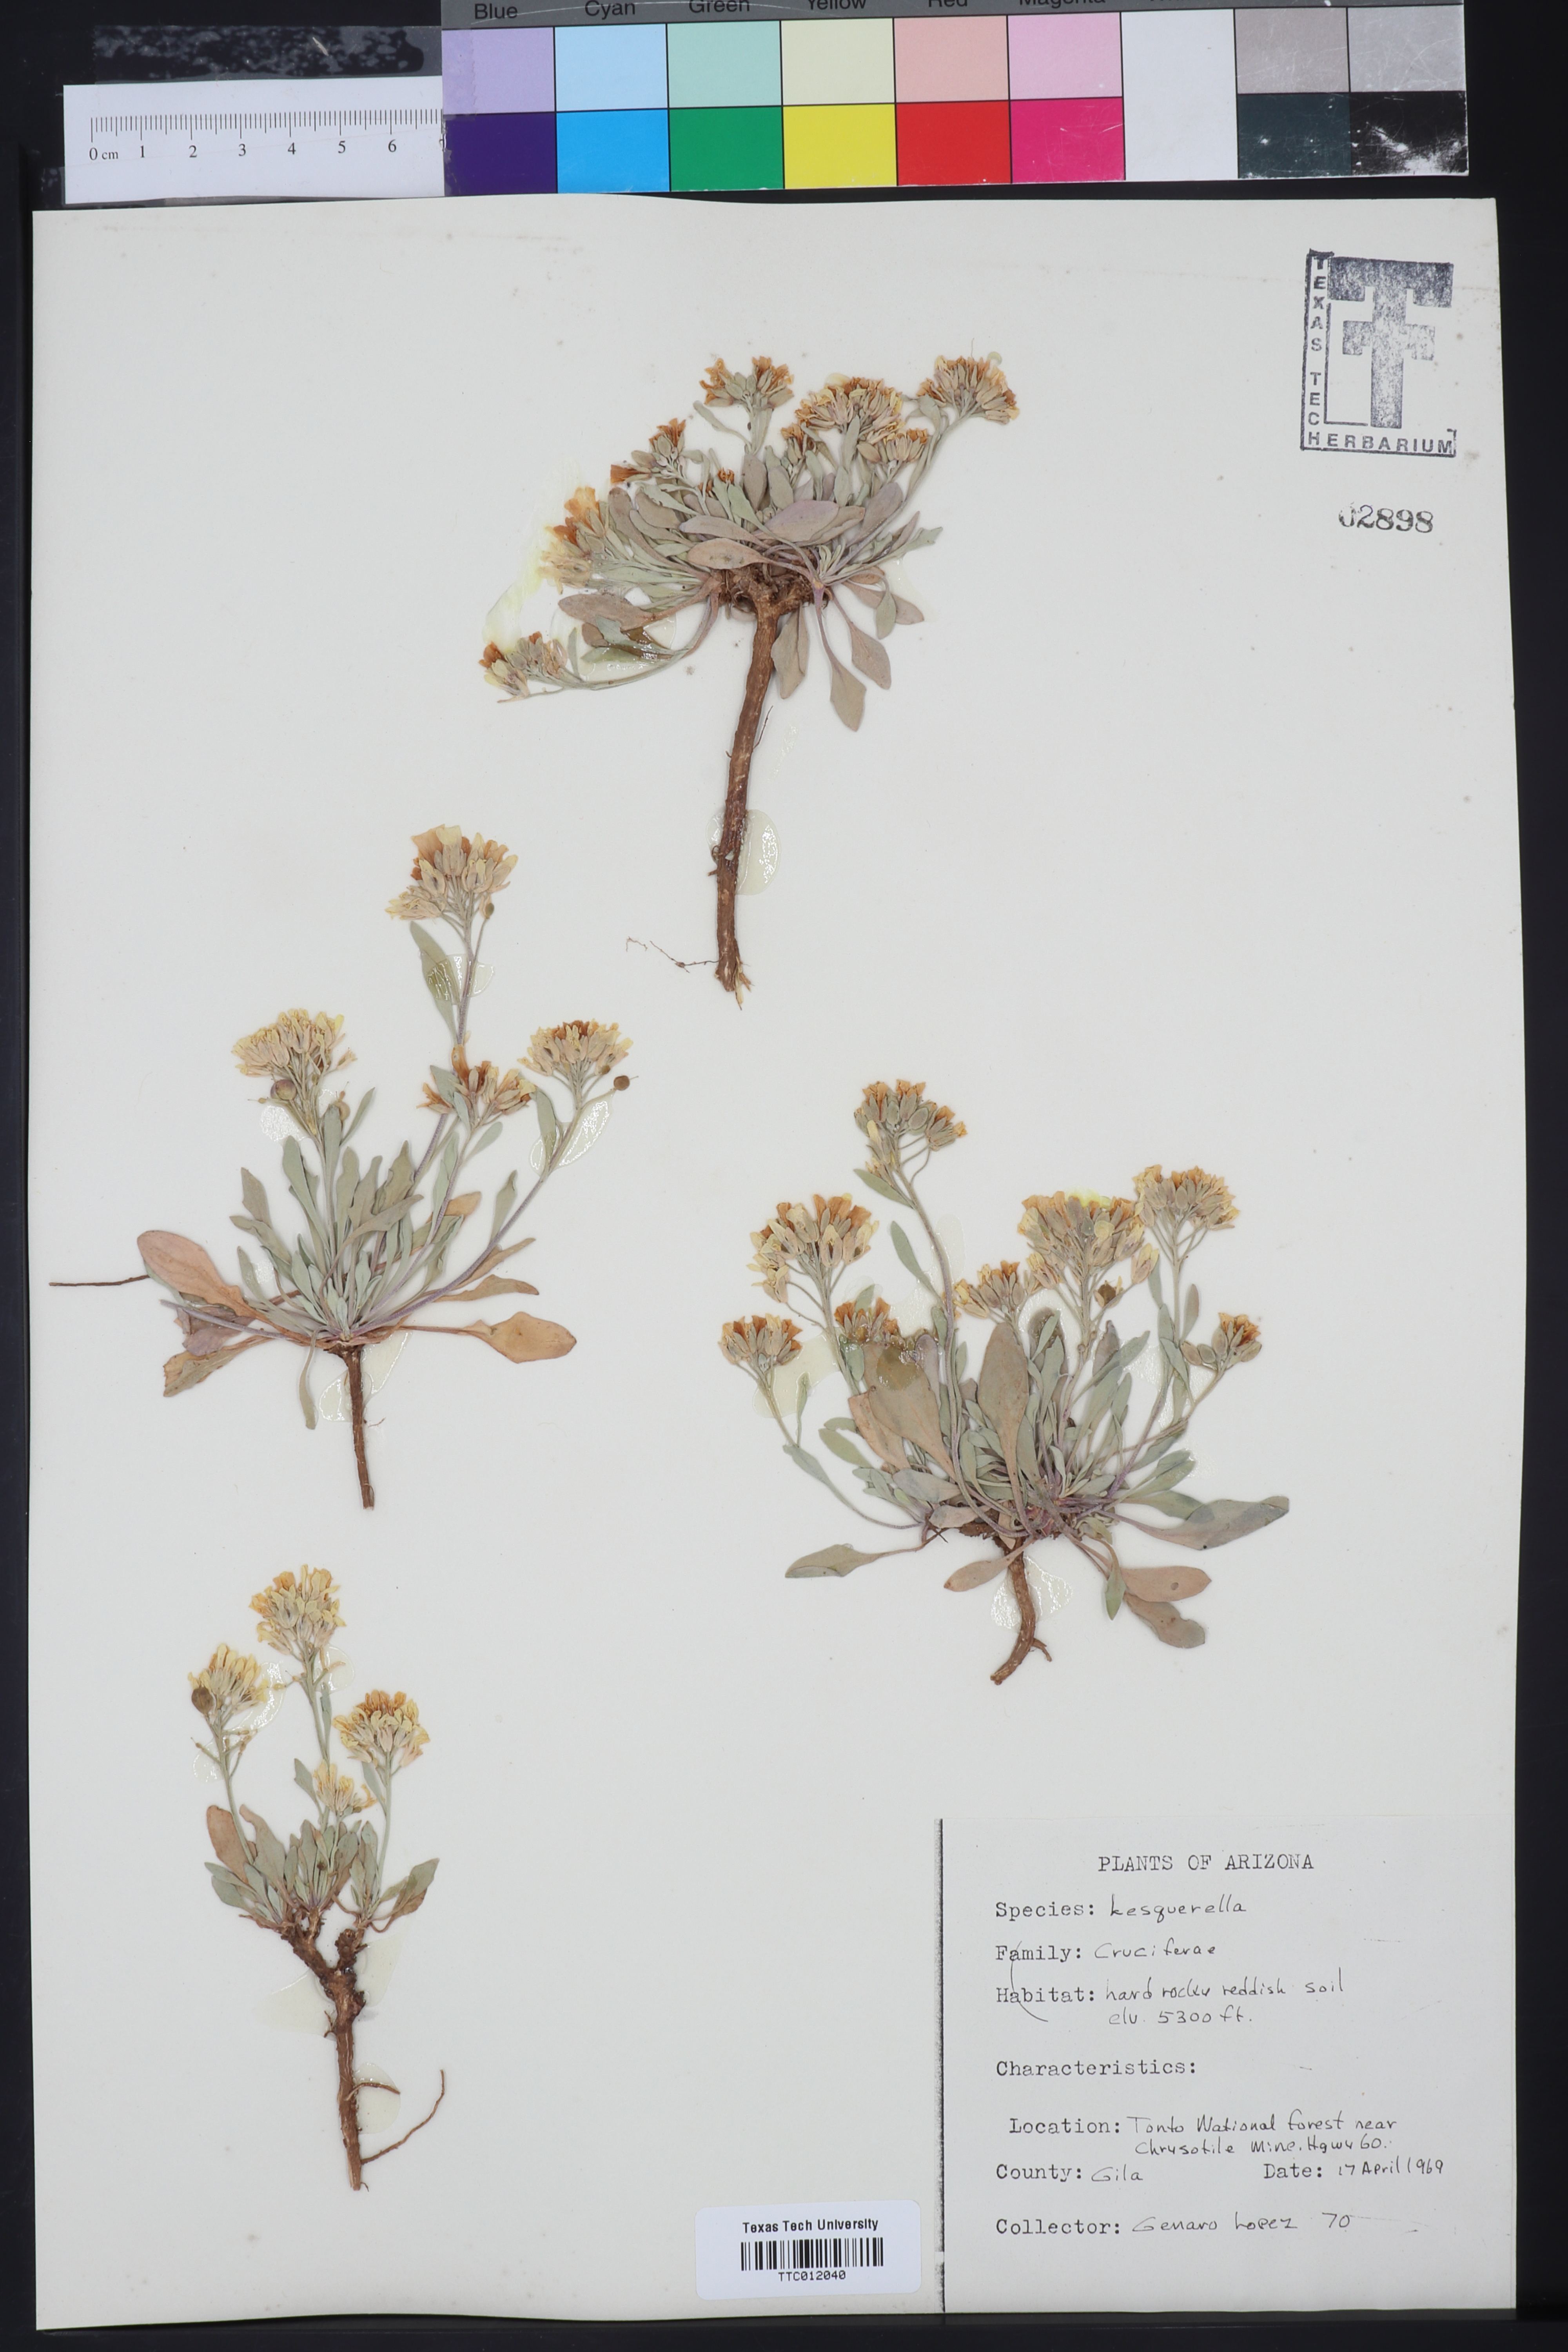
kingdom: Chromista
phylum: Cercozoa
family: Psammonobiotidae
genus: Lesquerella
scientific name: Lesquerella
